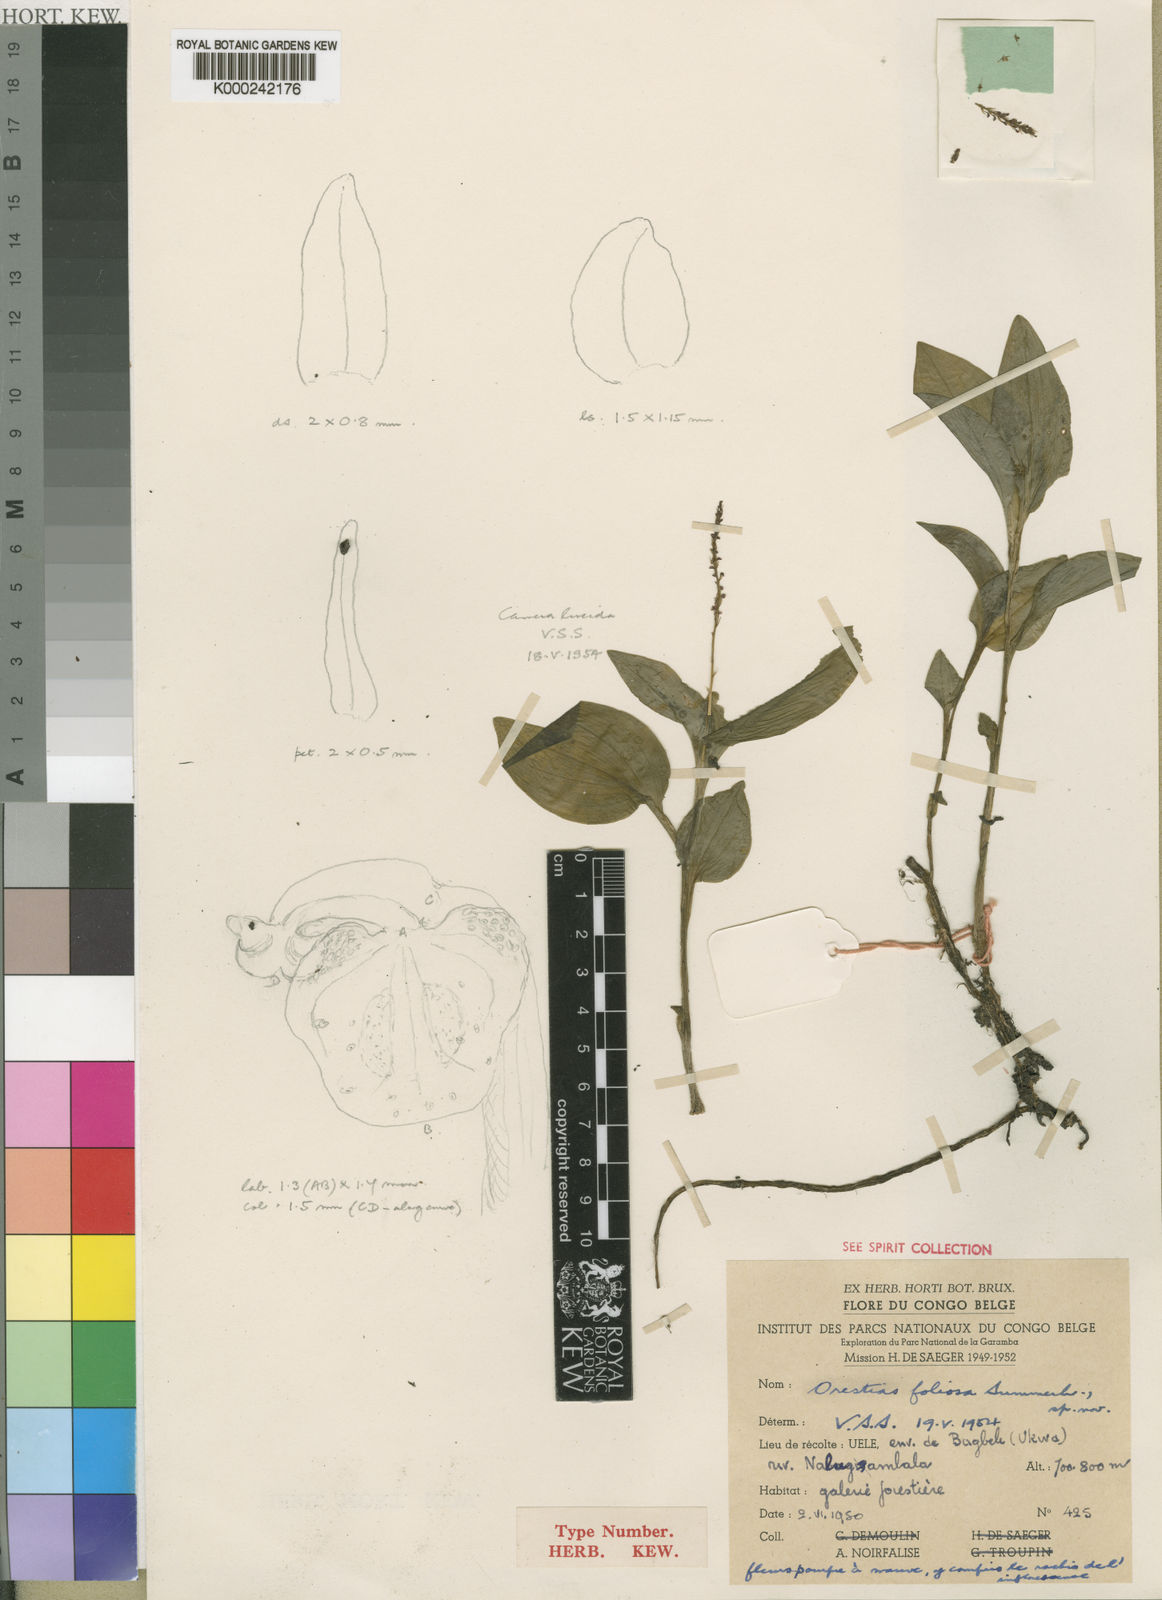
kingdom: Plantae
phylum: Tracheophyta
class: Liliopsida
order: Asparagales
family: Orchidaceae
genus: Orestias
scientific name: Orestias foliosa
